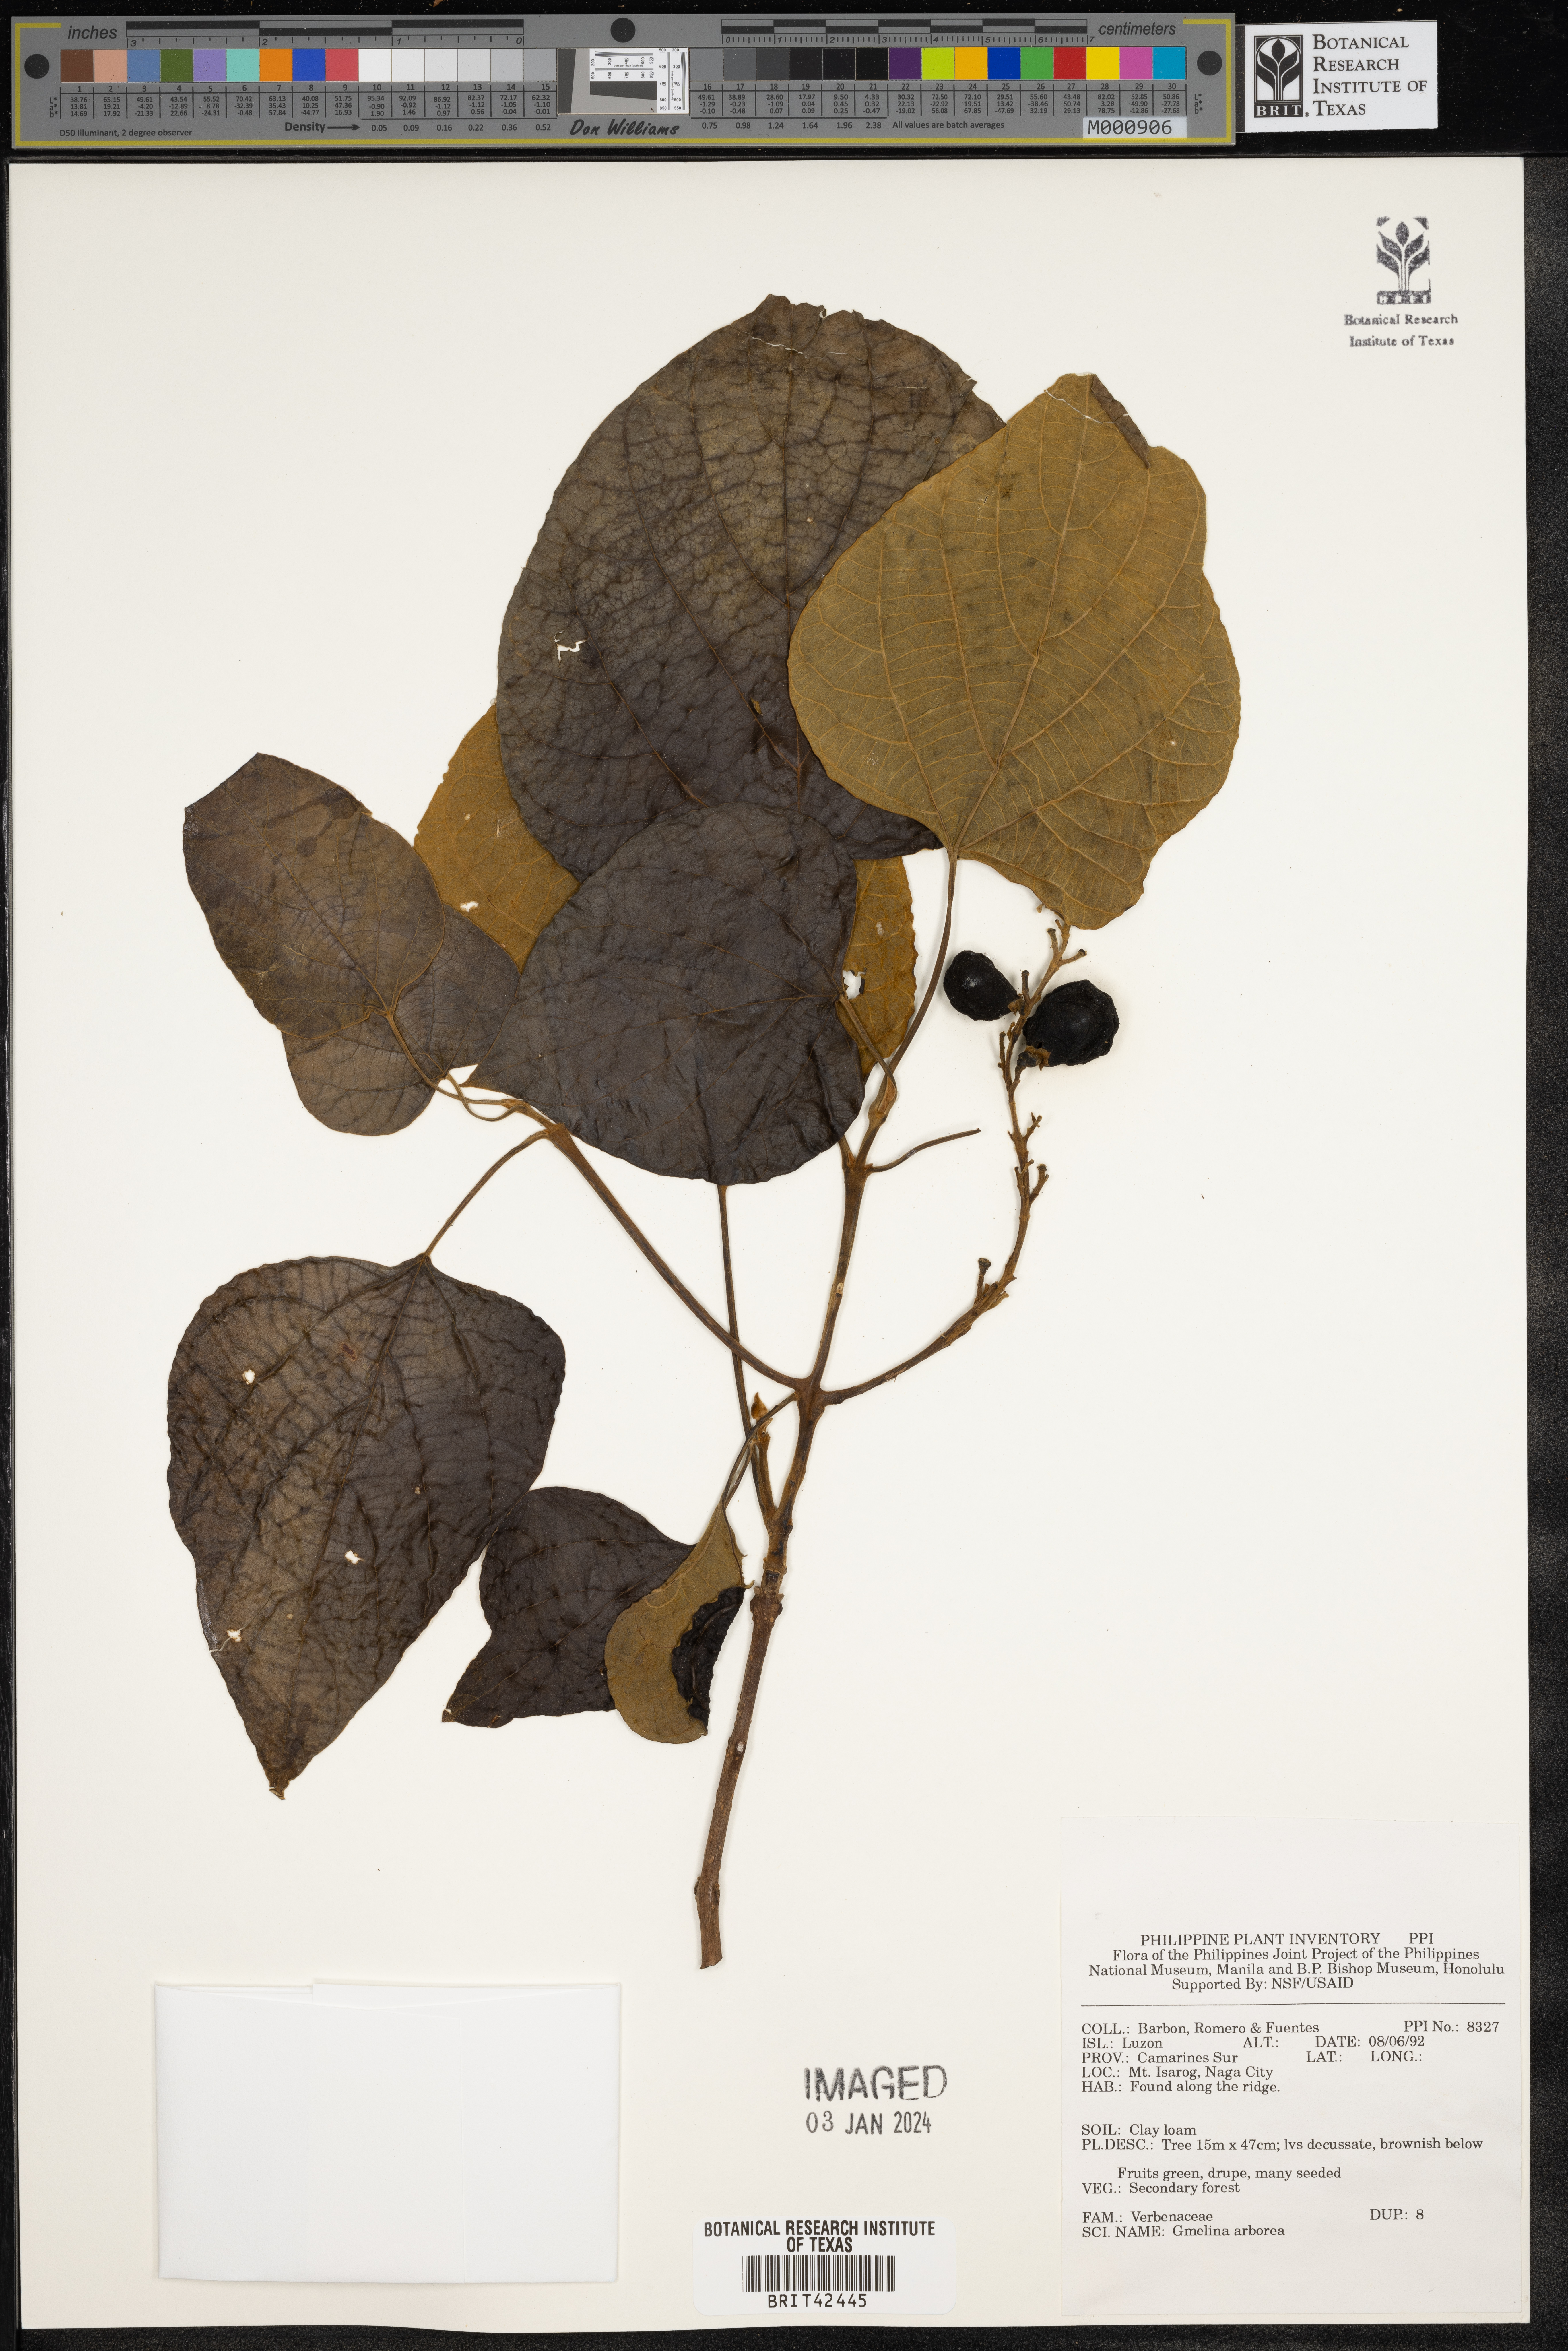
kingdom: Plantae
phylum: Tracheophyta
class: Magnoliopsida
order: Lamiales
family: Lamiaceae
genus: Gmelina
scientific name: Gmelina arborea
